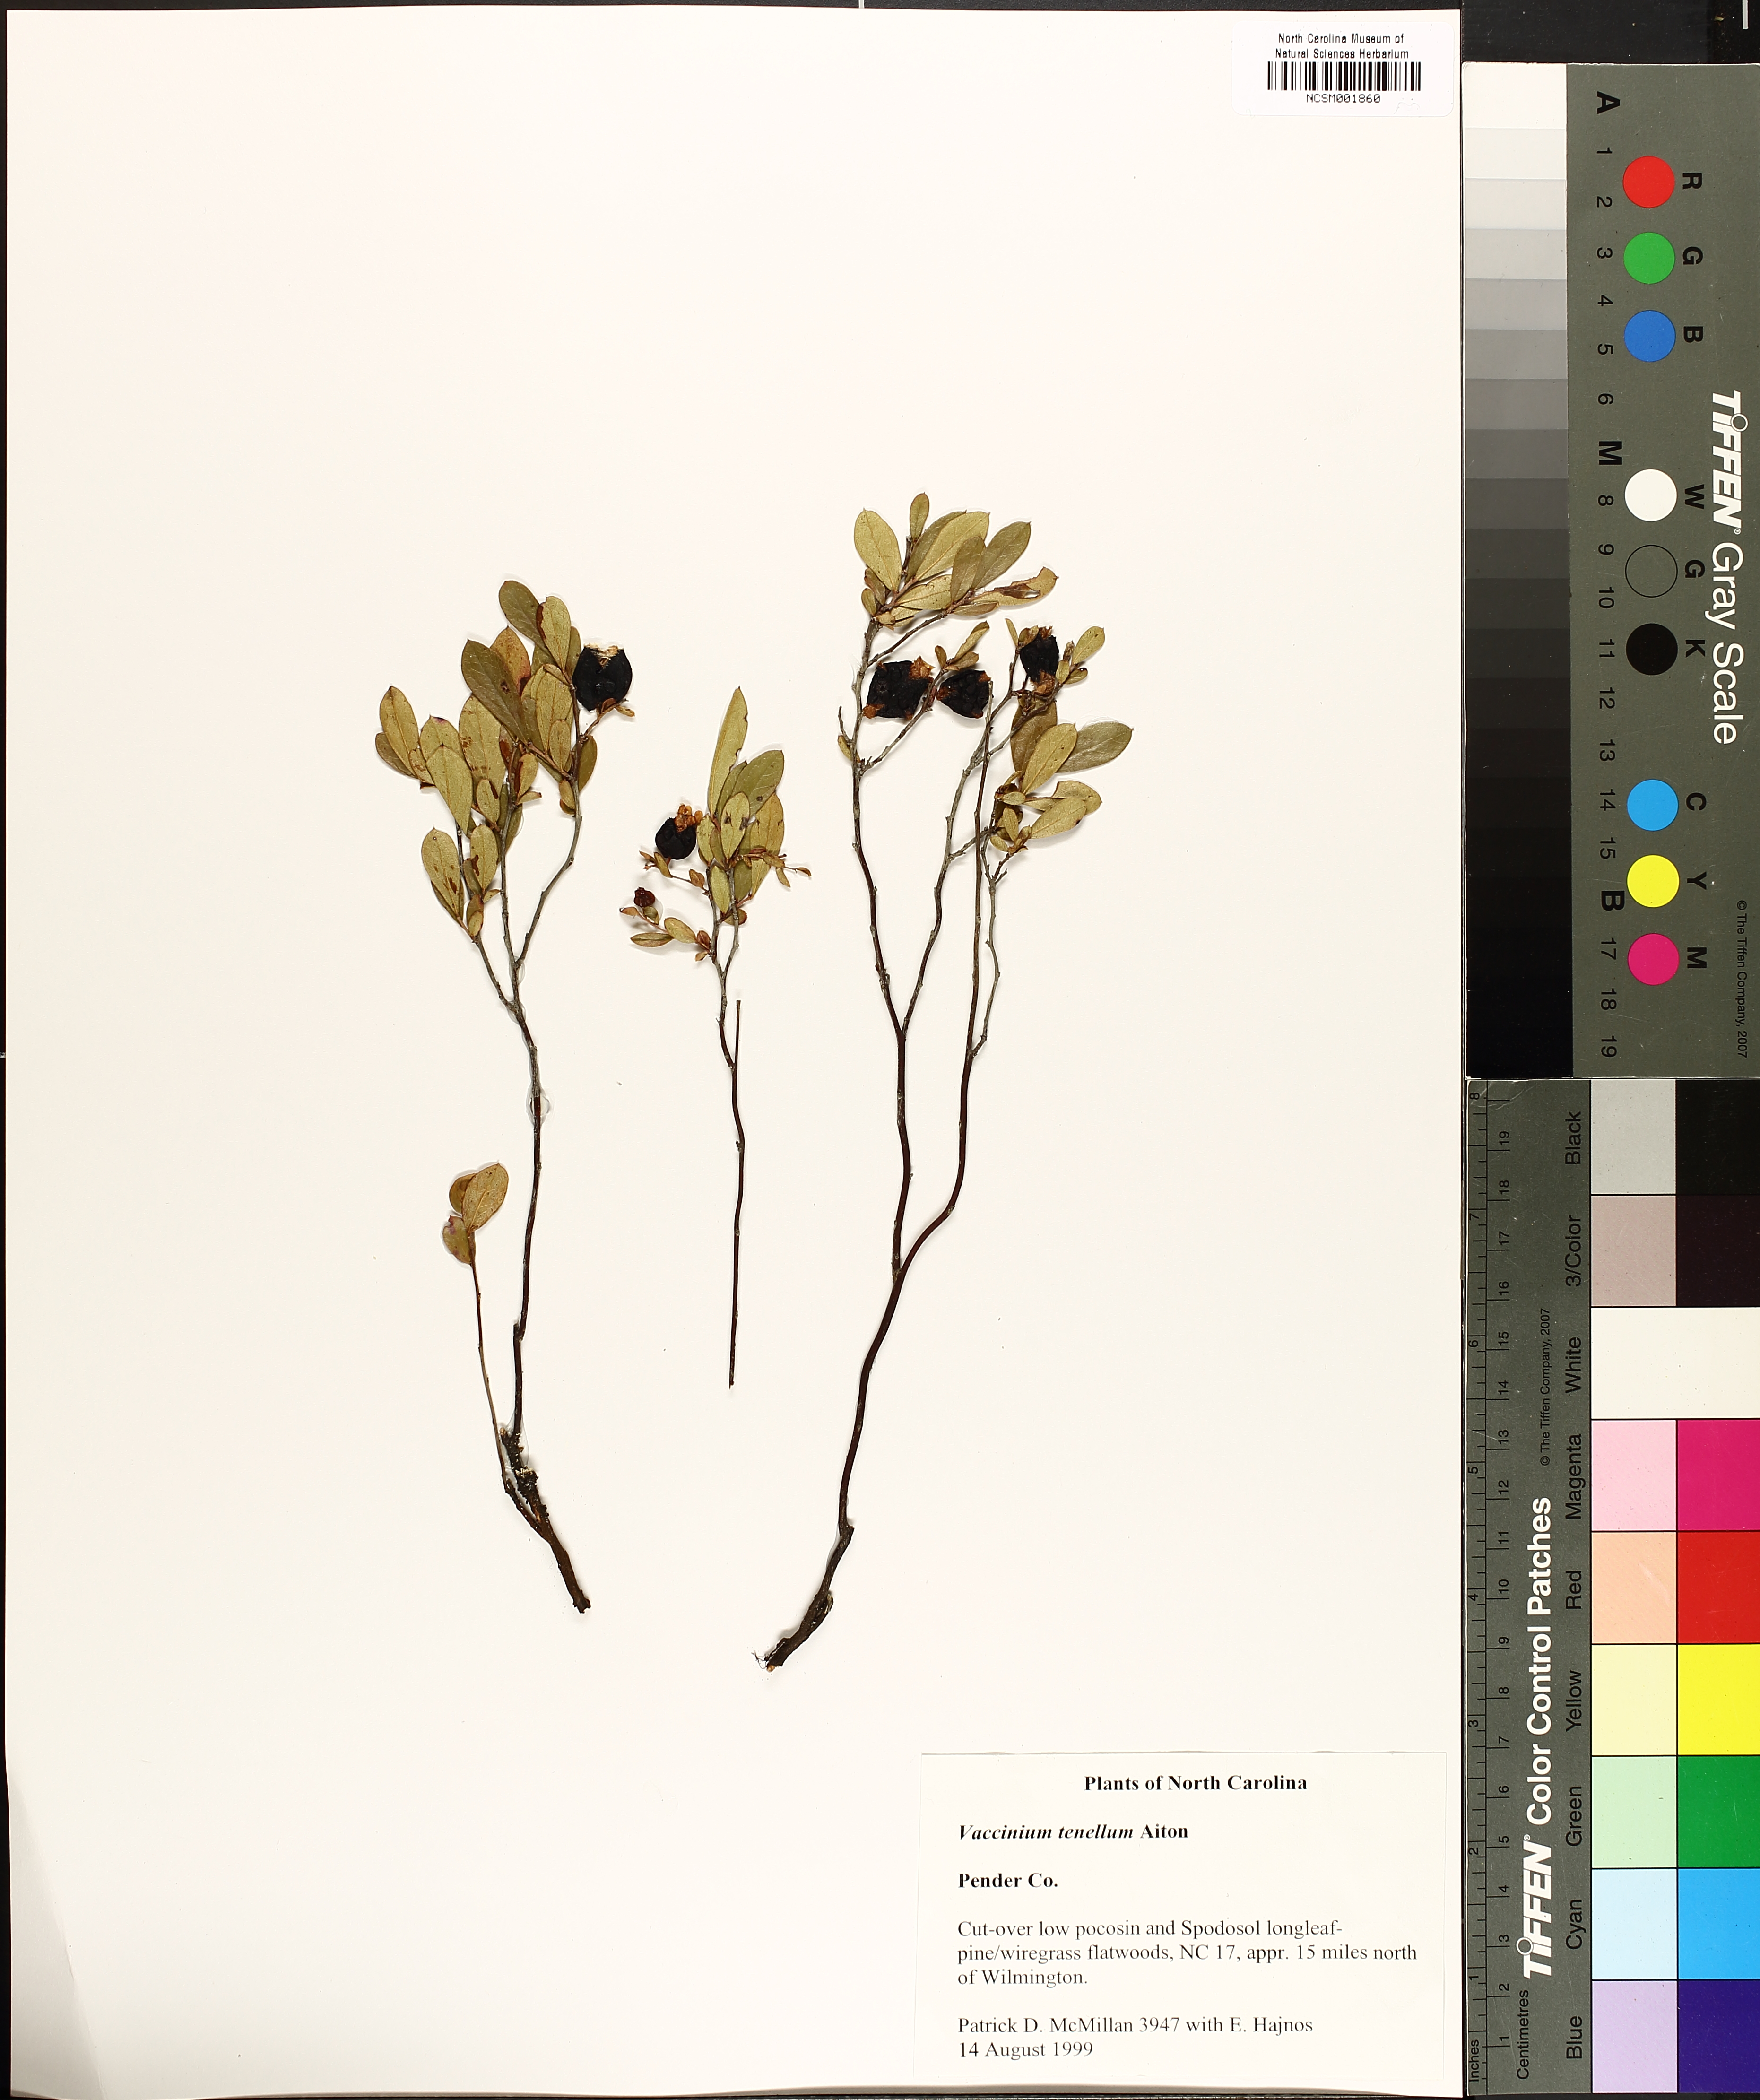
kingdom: Plantae
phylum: Tracheophyta
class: Magnoliopsida
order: Ericales
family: Ericaceae
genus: Vaccinium
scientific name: Vaccinium tenellum
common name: Southern blueberry
